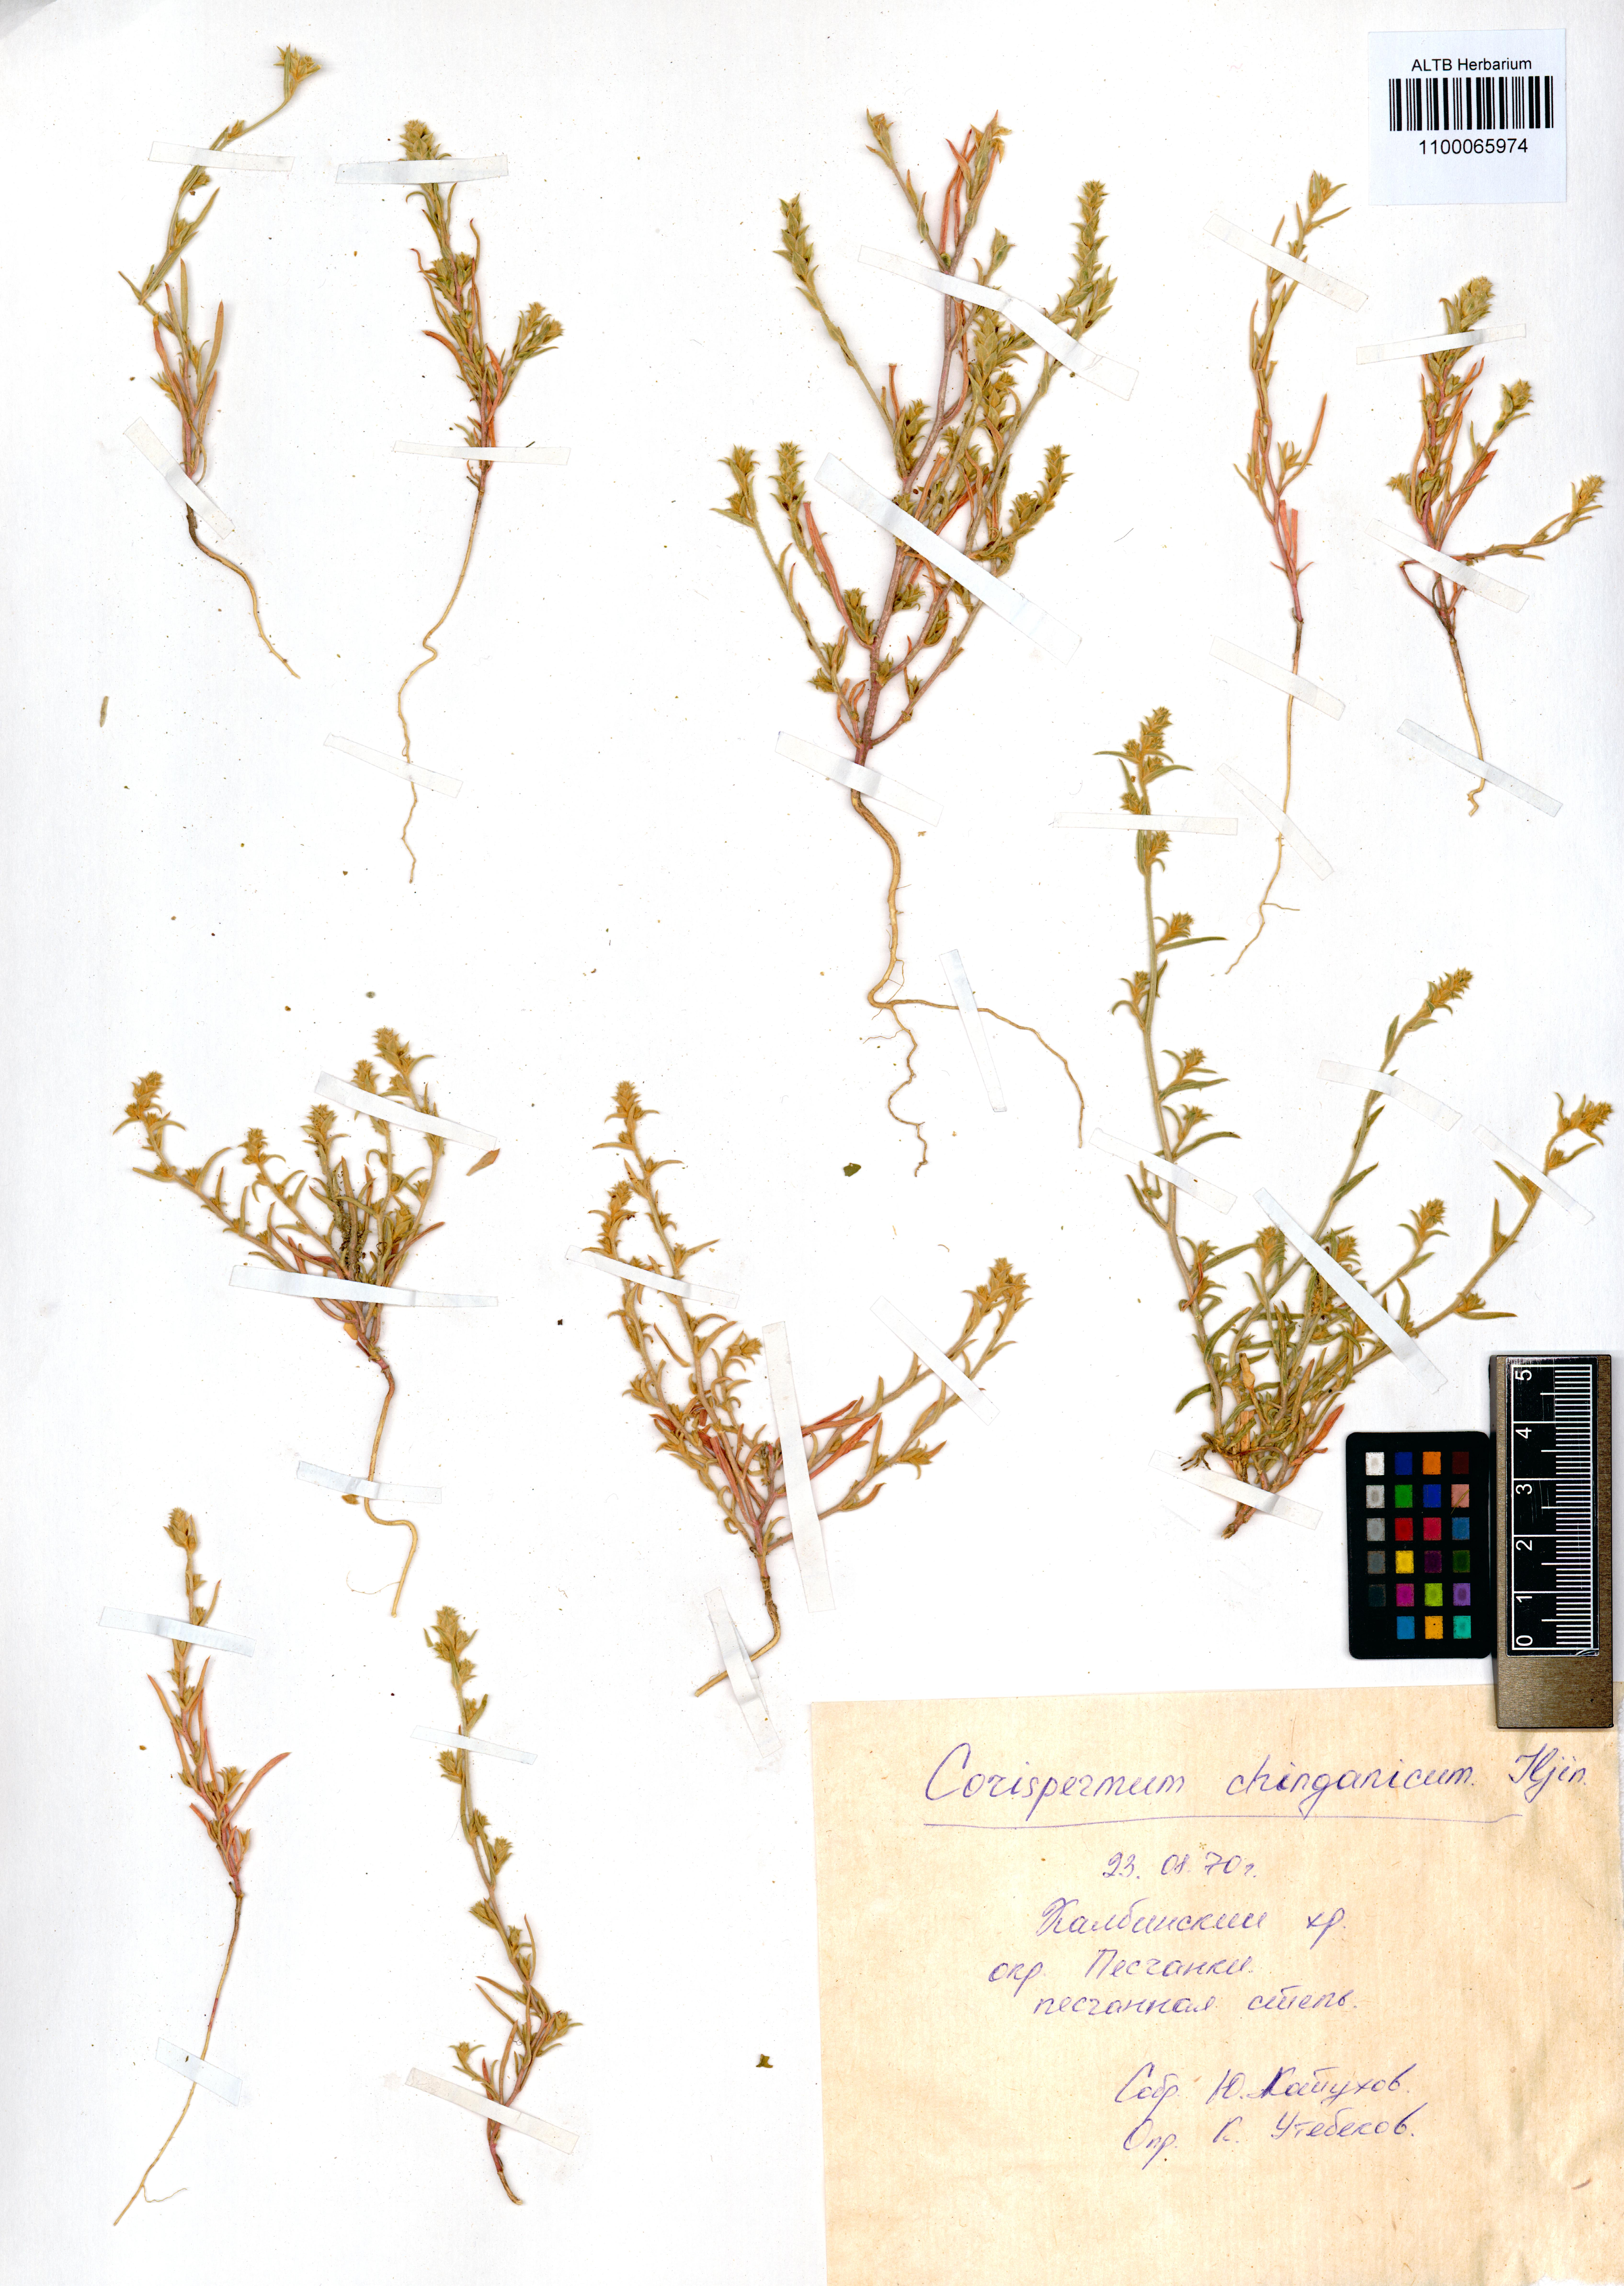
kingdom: Plantae
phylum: Tracheophyta
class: Magnoliopsida
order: Caryophyllales
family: Amaranthaceae
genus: Corispermum
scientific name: Corispermum chinganicum
